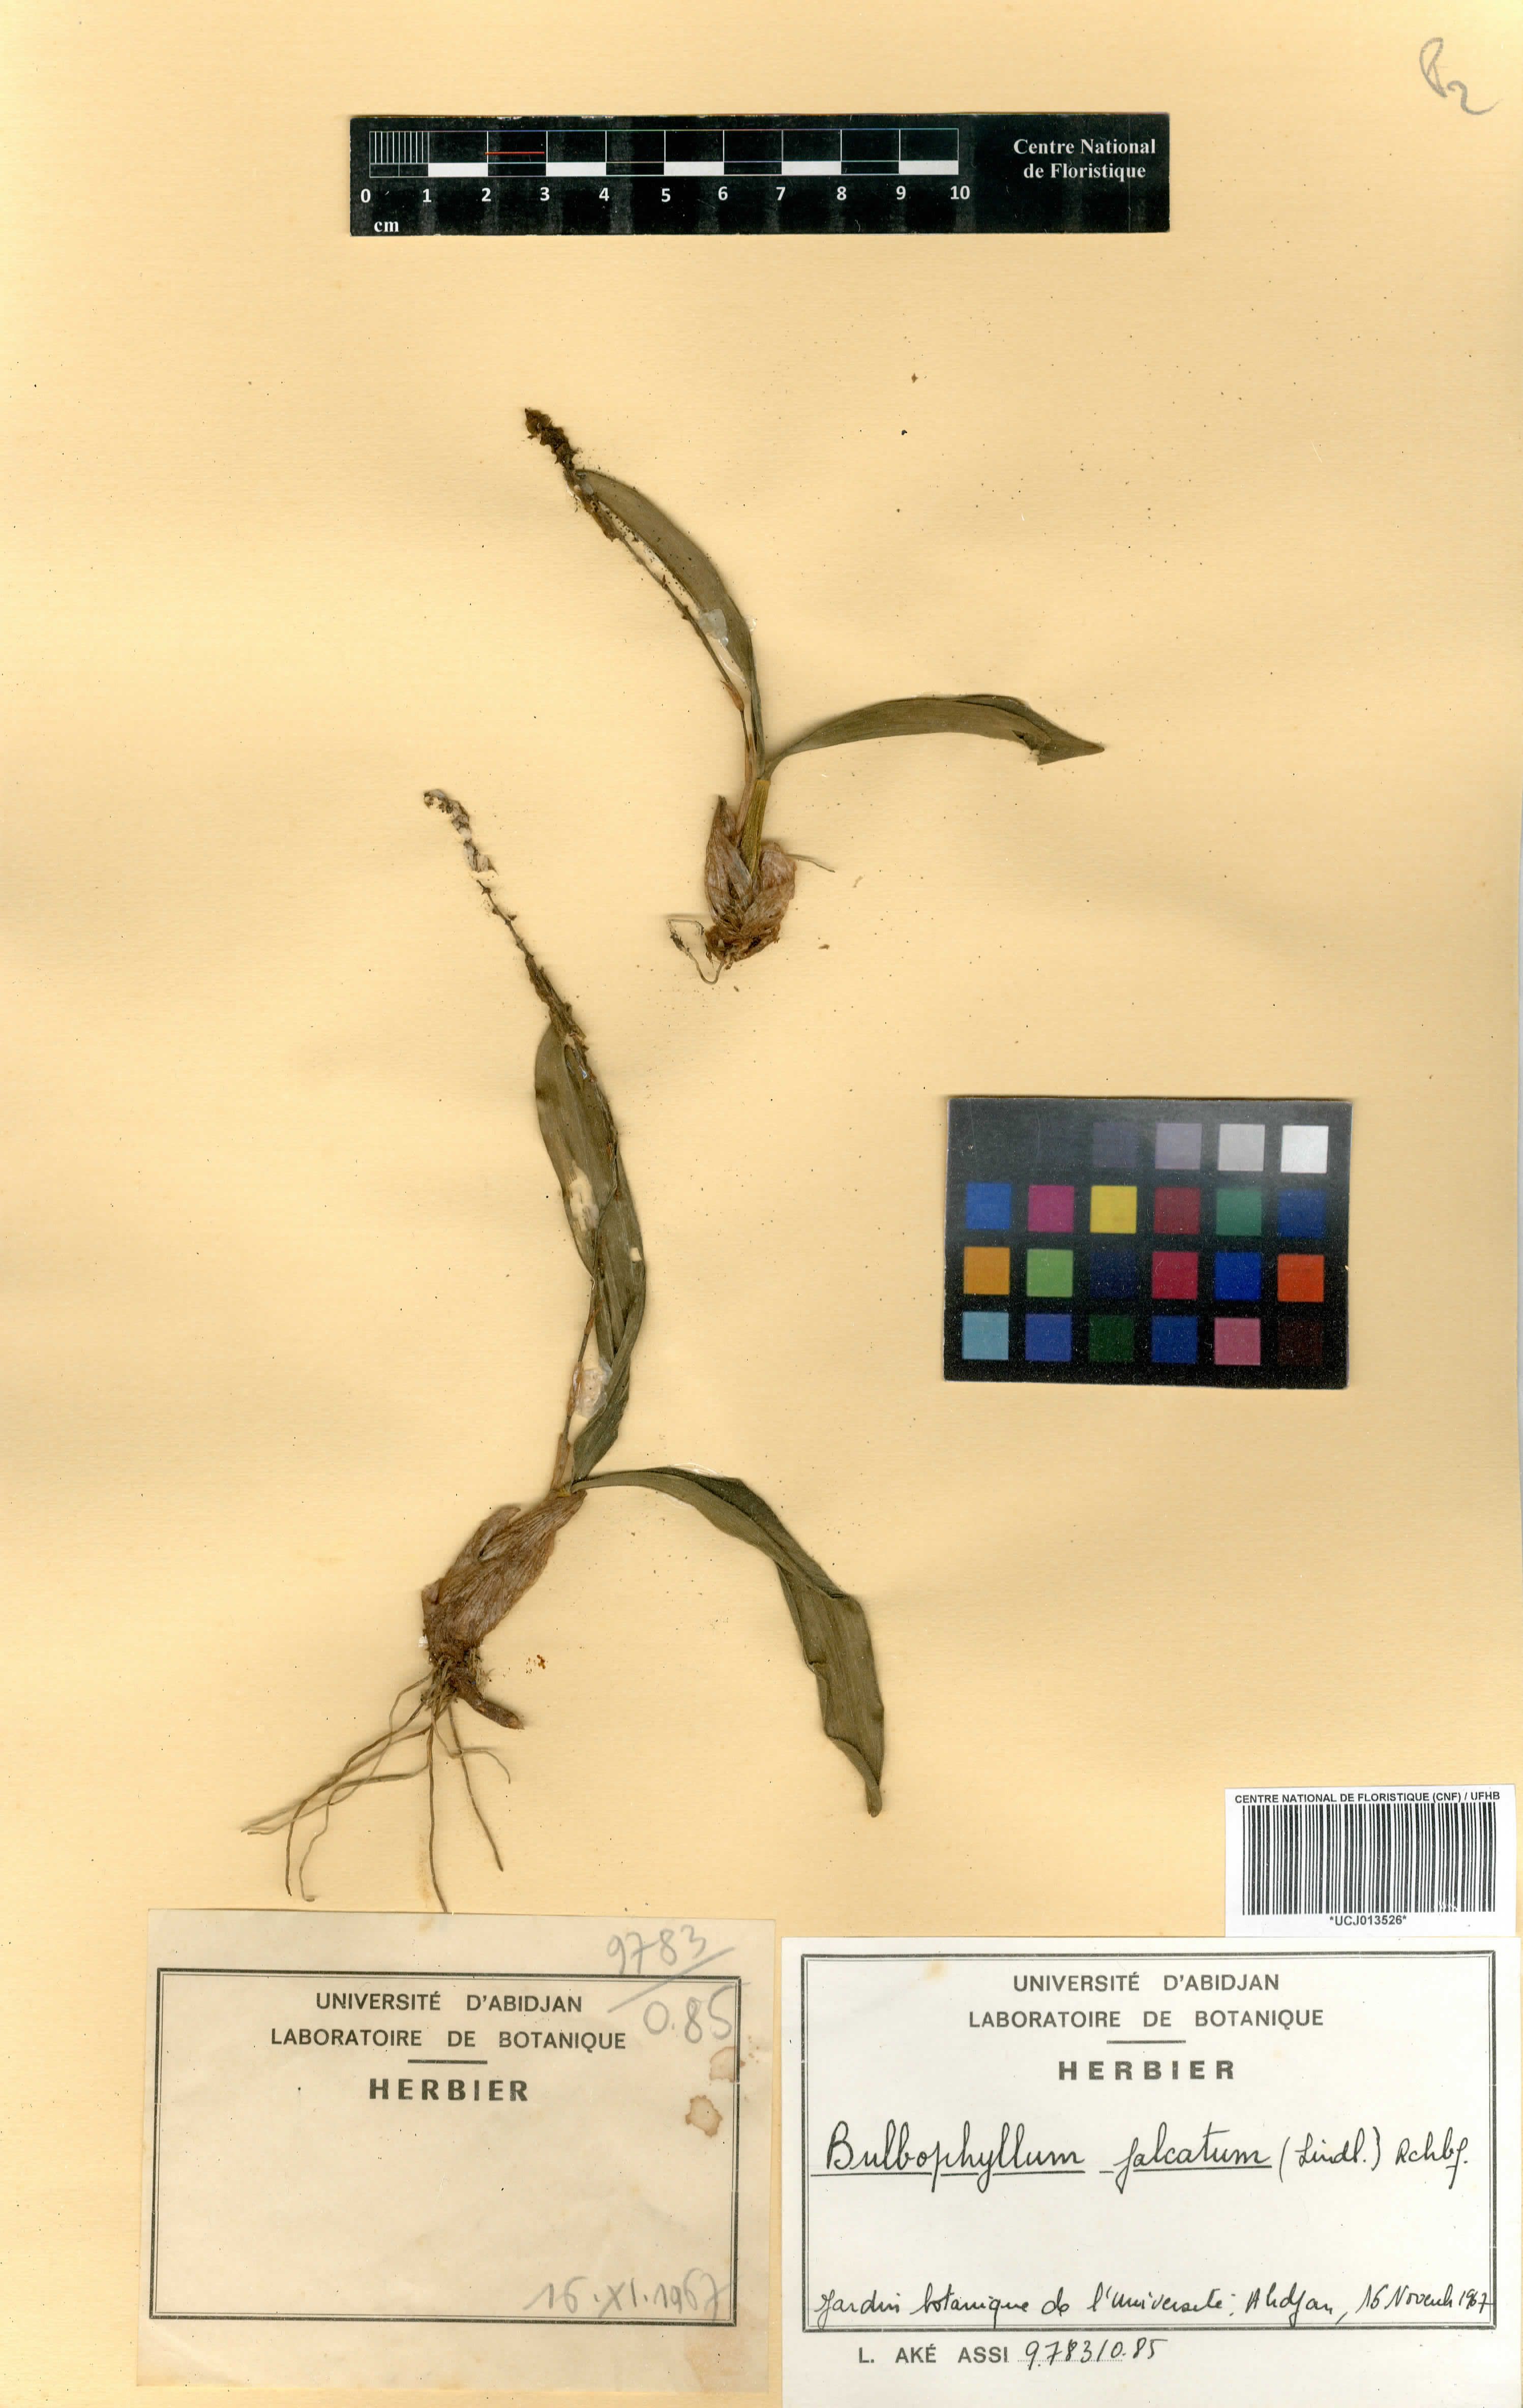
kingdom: Plantae
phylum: Tracheophyta
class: Liliopsida
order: Asparagales
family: Orchidaceae
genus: Bulbophyllum
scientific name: Bulbophyllum falcatum
